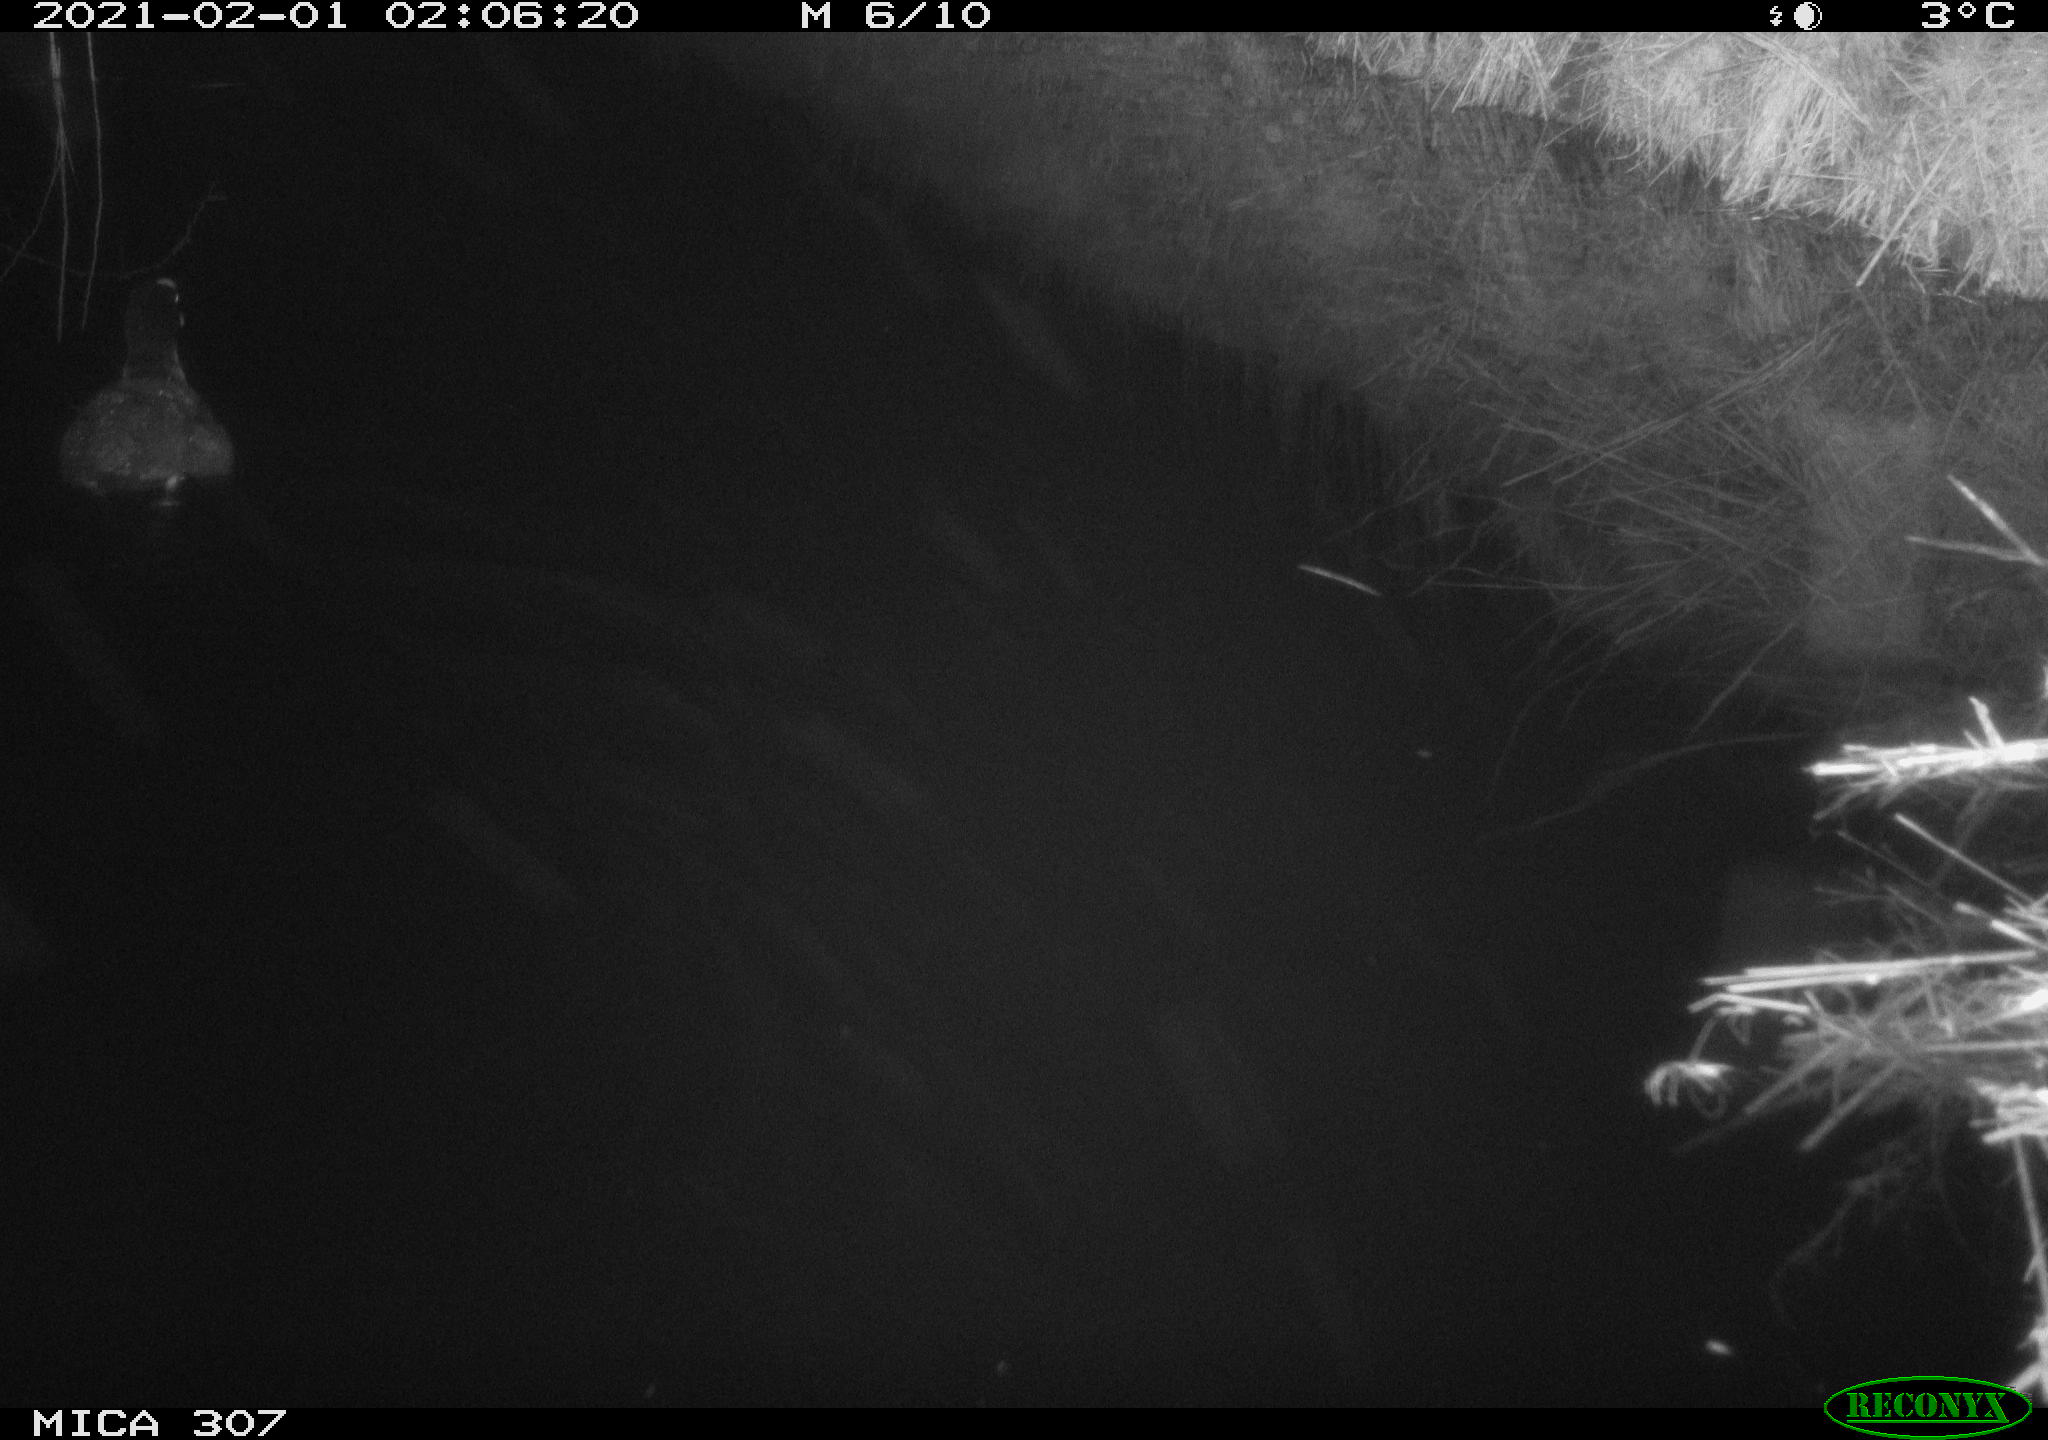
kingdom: Animalia
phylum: Chordata
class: Aves
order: Gruiformes
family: Rallidae
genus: Fulica
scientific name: Fulica atra
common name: Eurasian coot
